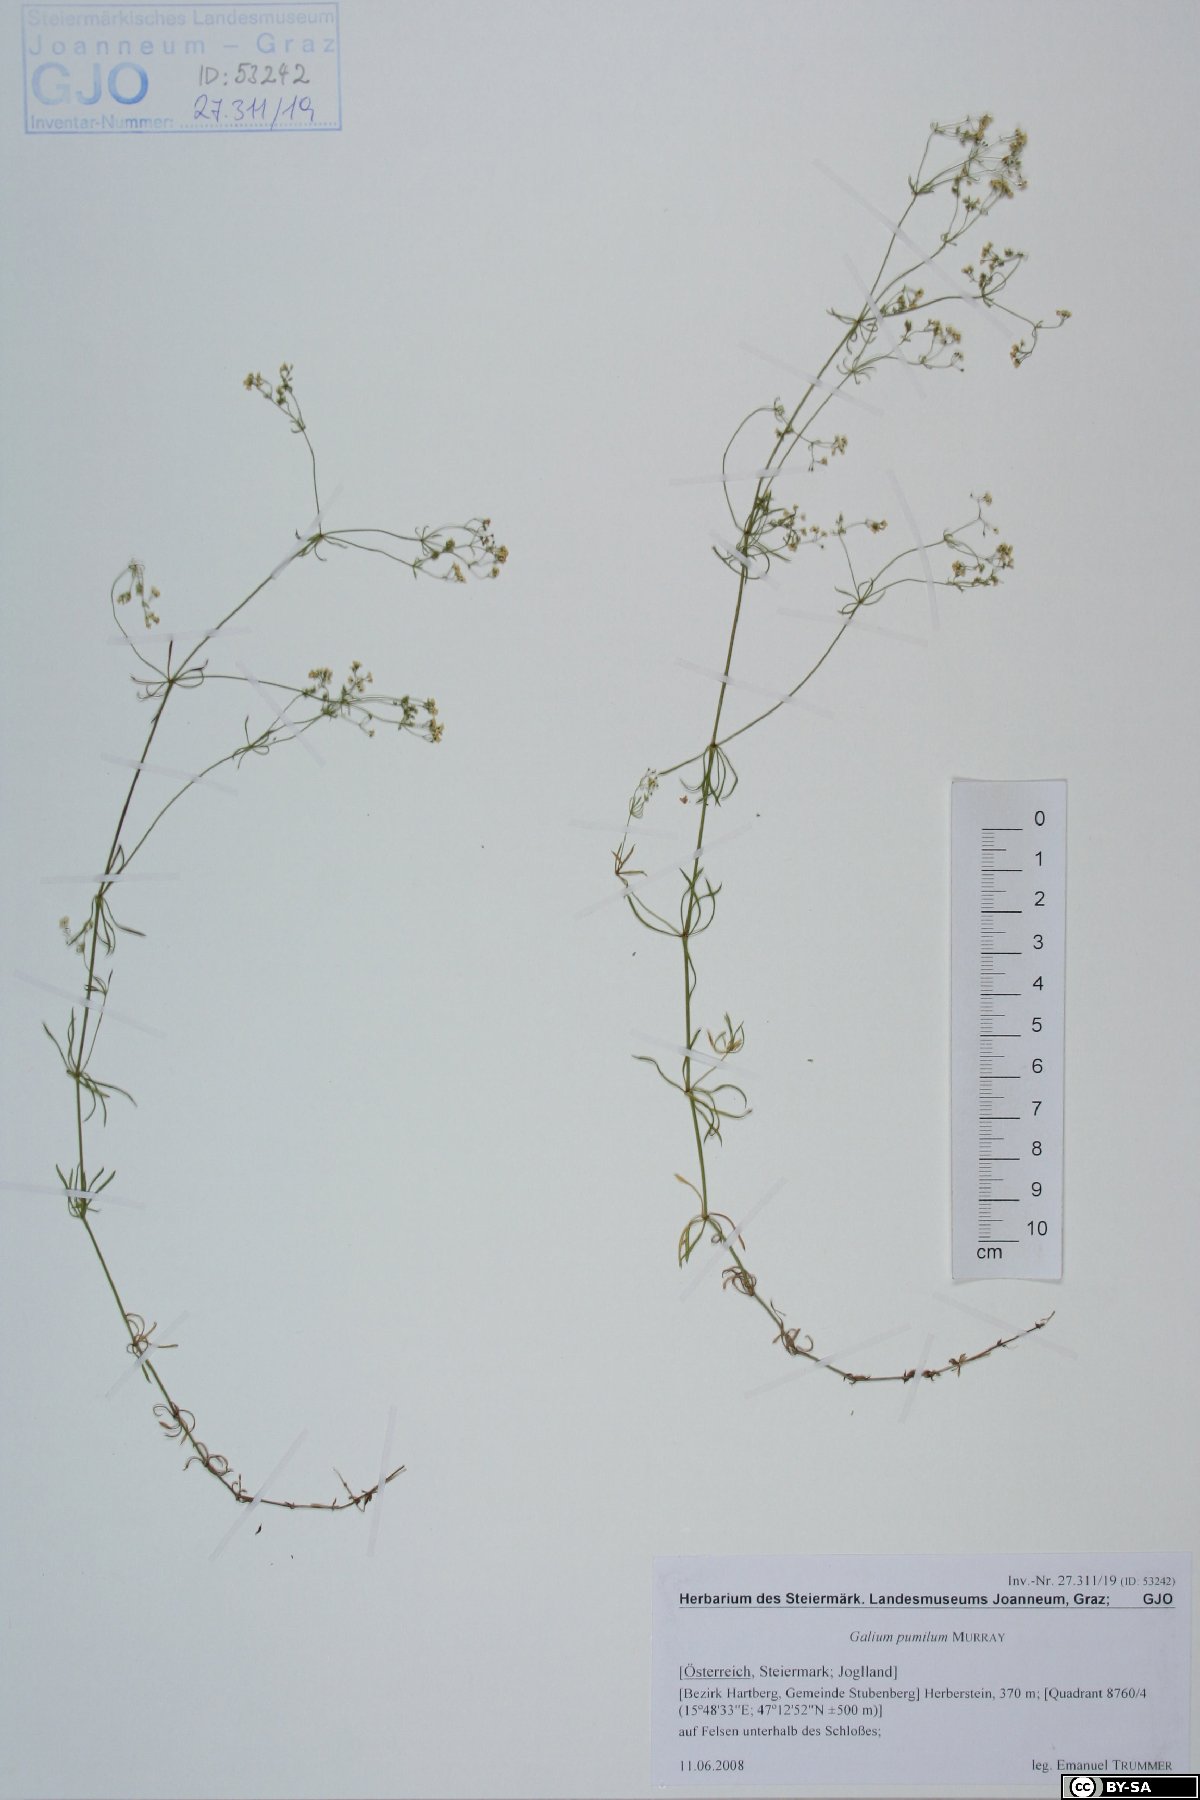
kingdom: Plantae
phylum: Tracheophyta
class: Magnoliopsida
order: Gentianales
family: Rubiaceae
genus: Galium
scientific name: Galium pumilum
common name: Slender bedstraw
